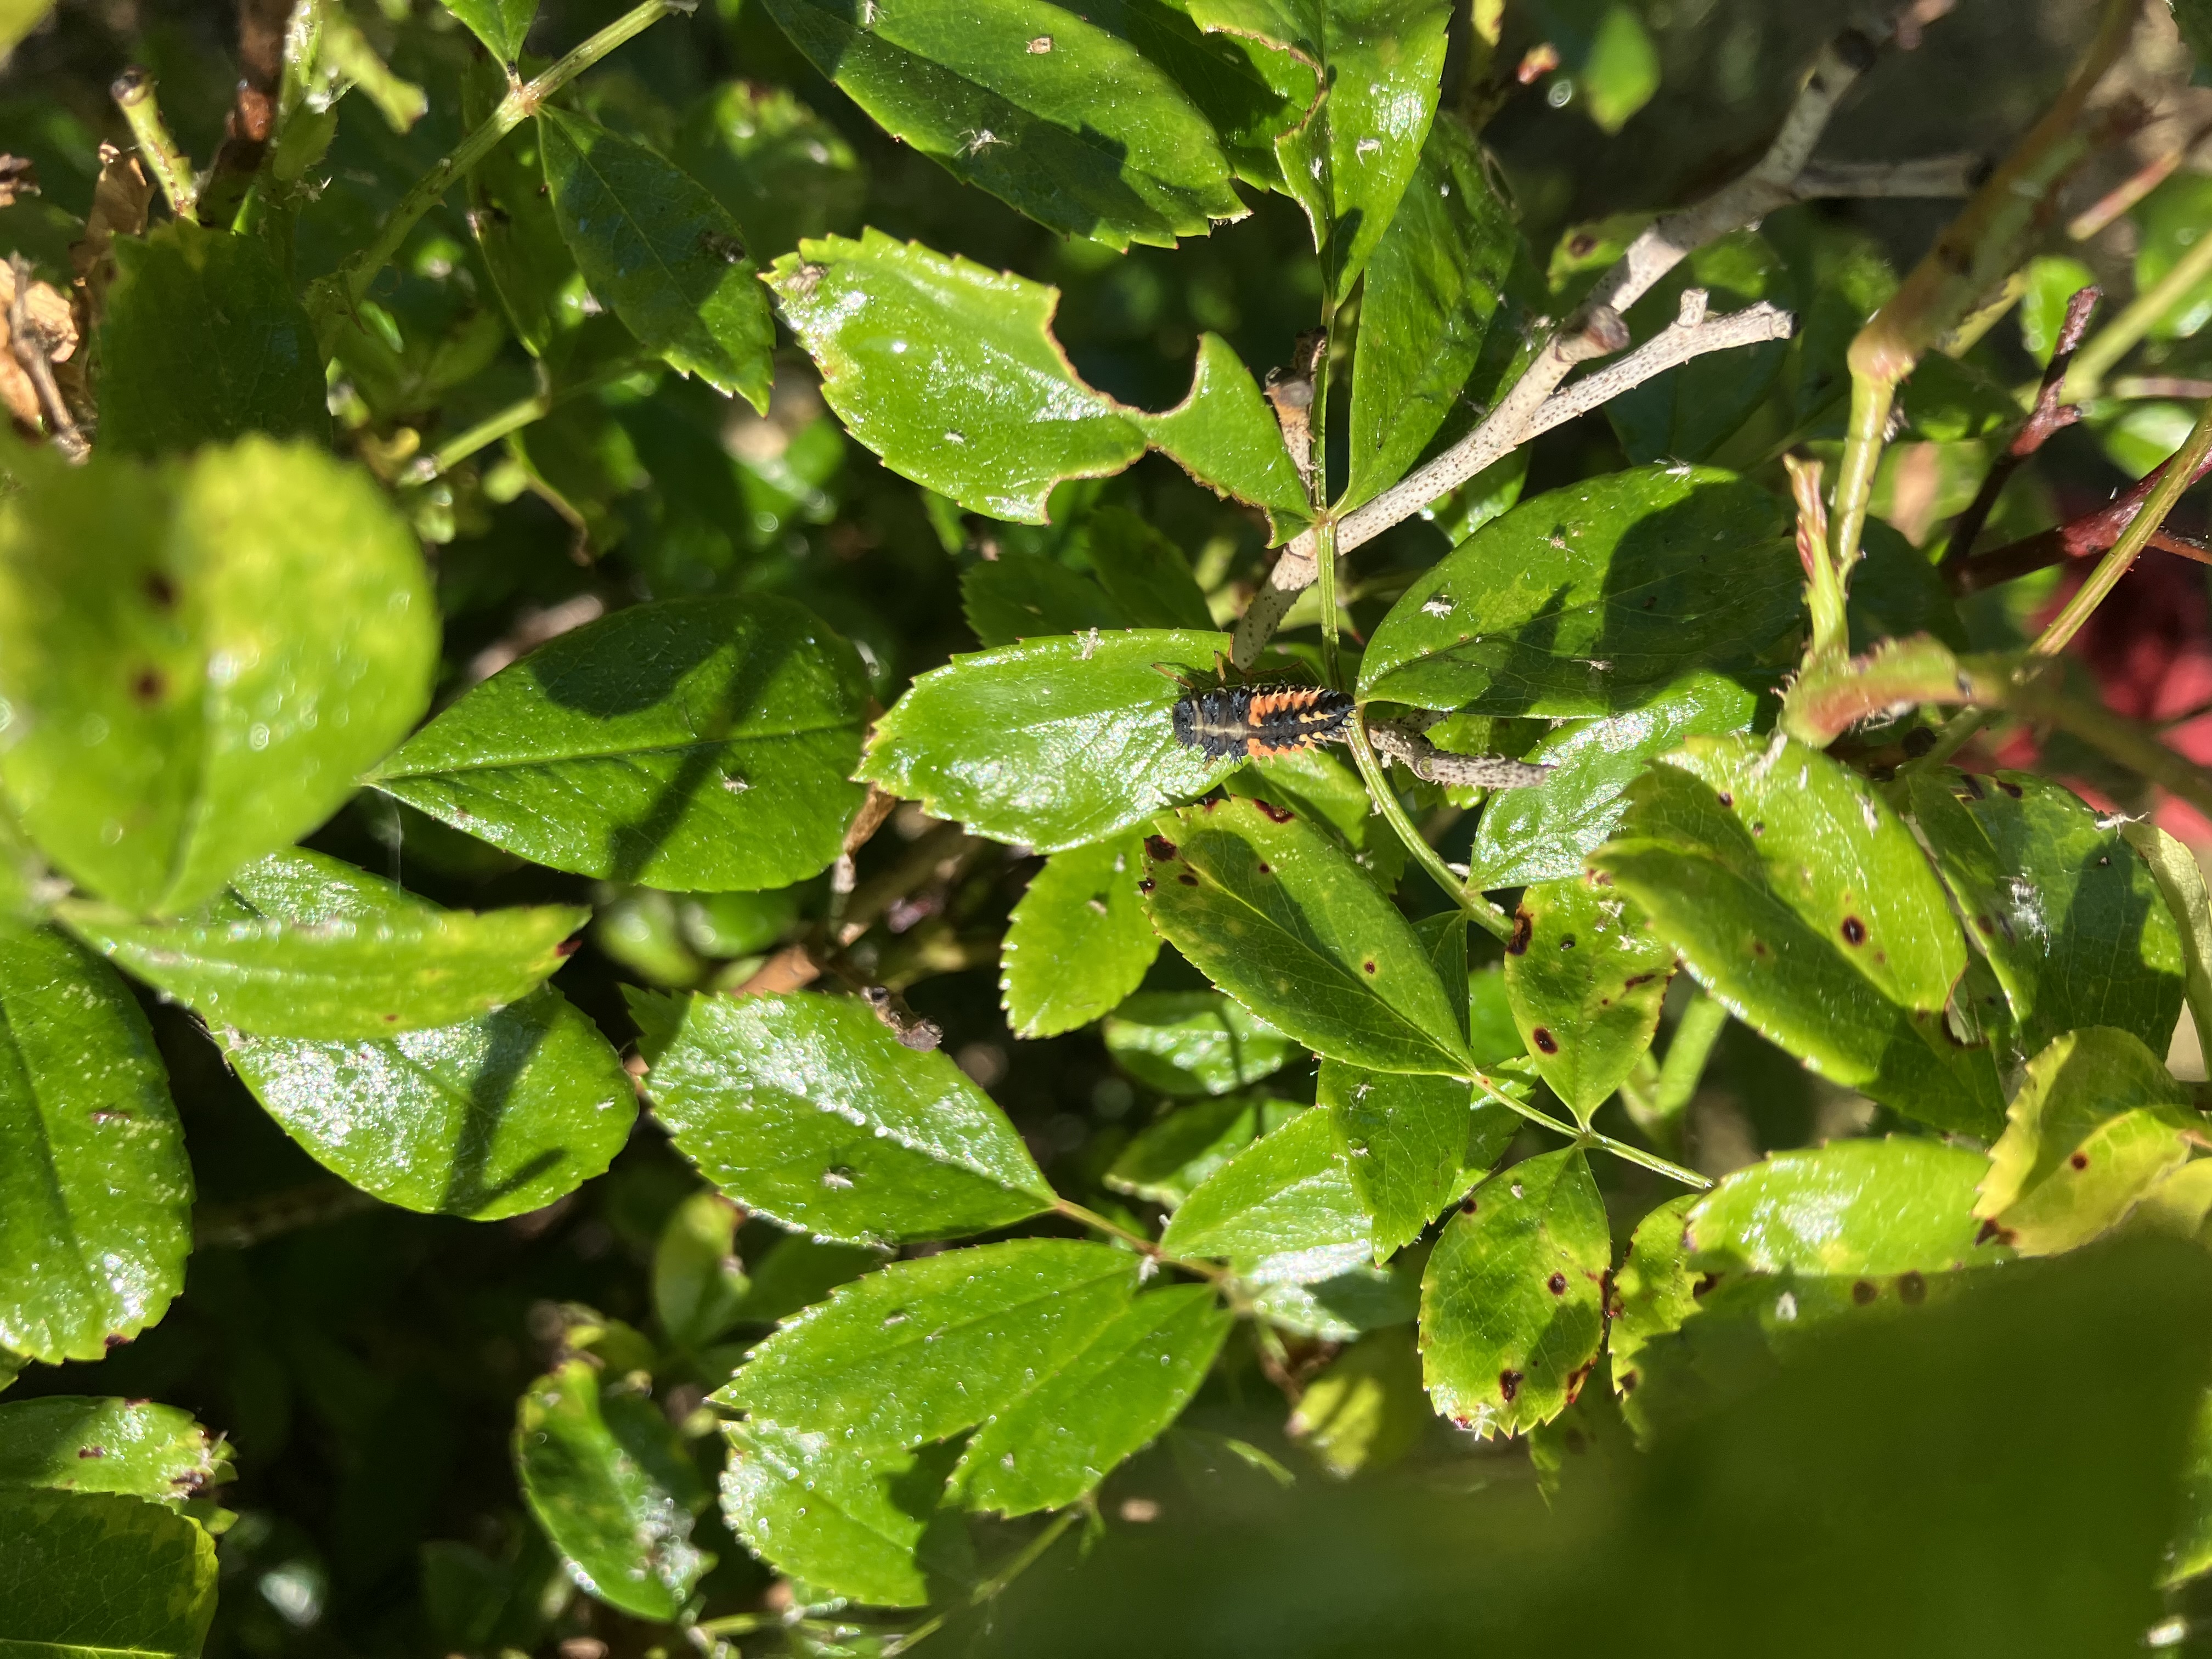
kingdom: Animalia
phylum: Arthropoda
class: Insecta
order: Coleoptera
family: Coccinellidae
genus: Harmonia
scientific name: Harmonia axyridis
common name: Harlekinmariehøne
